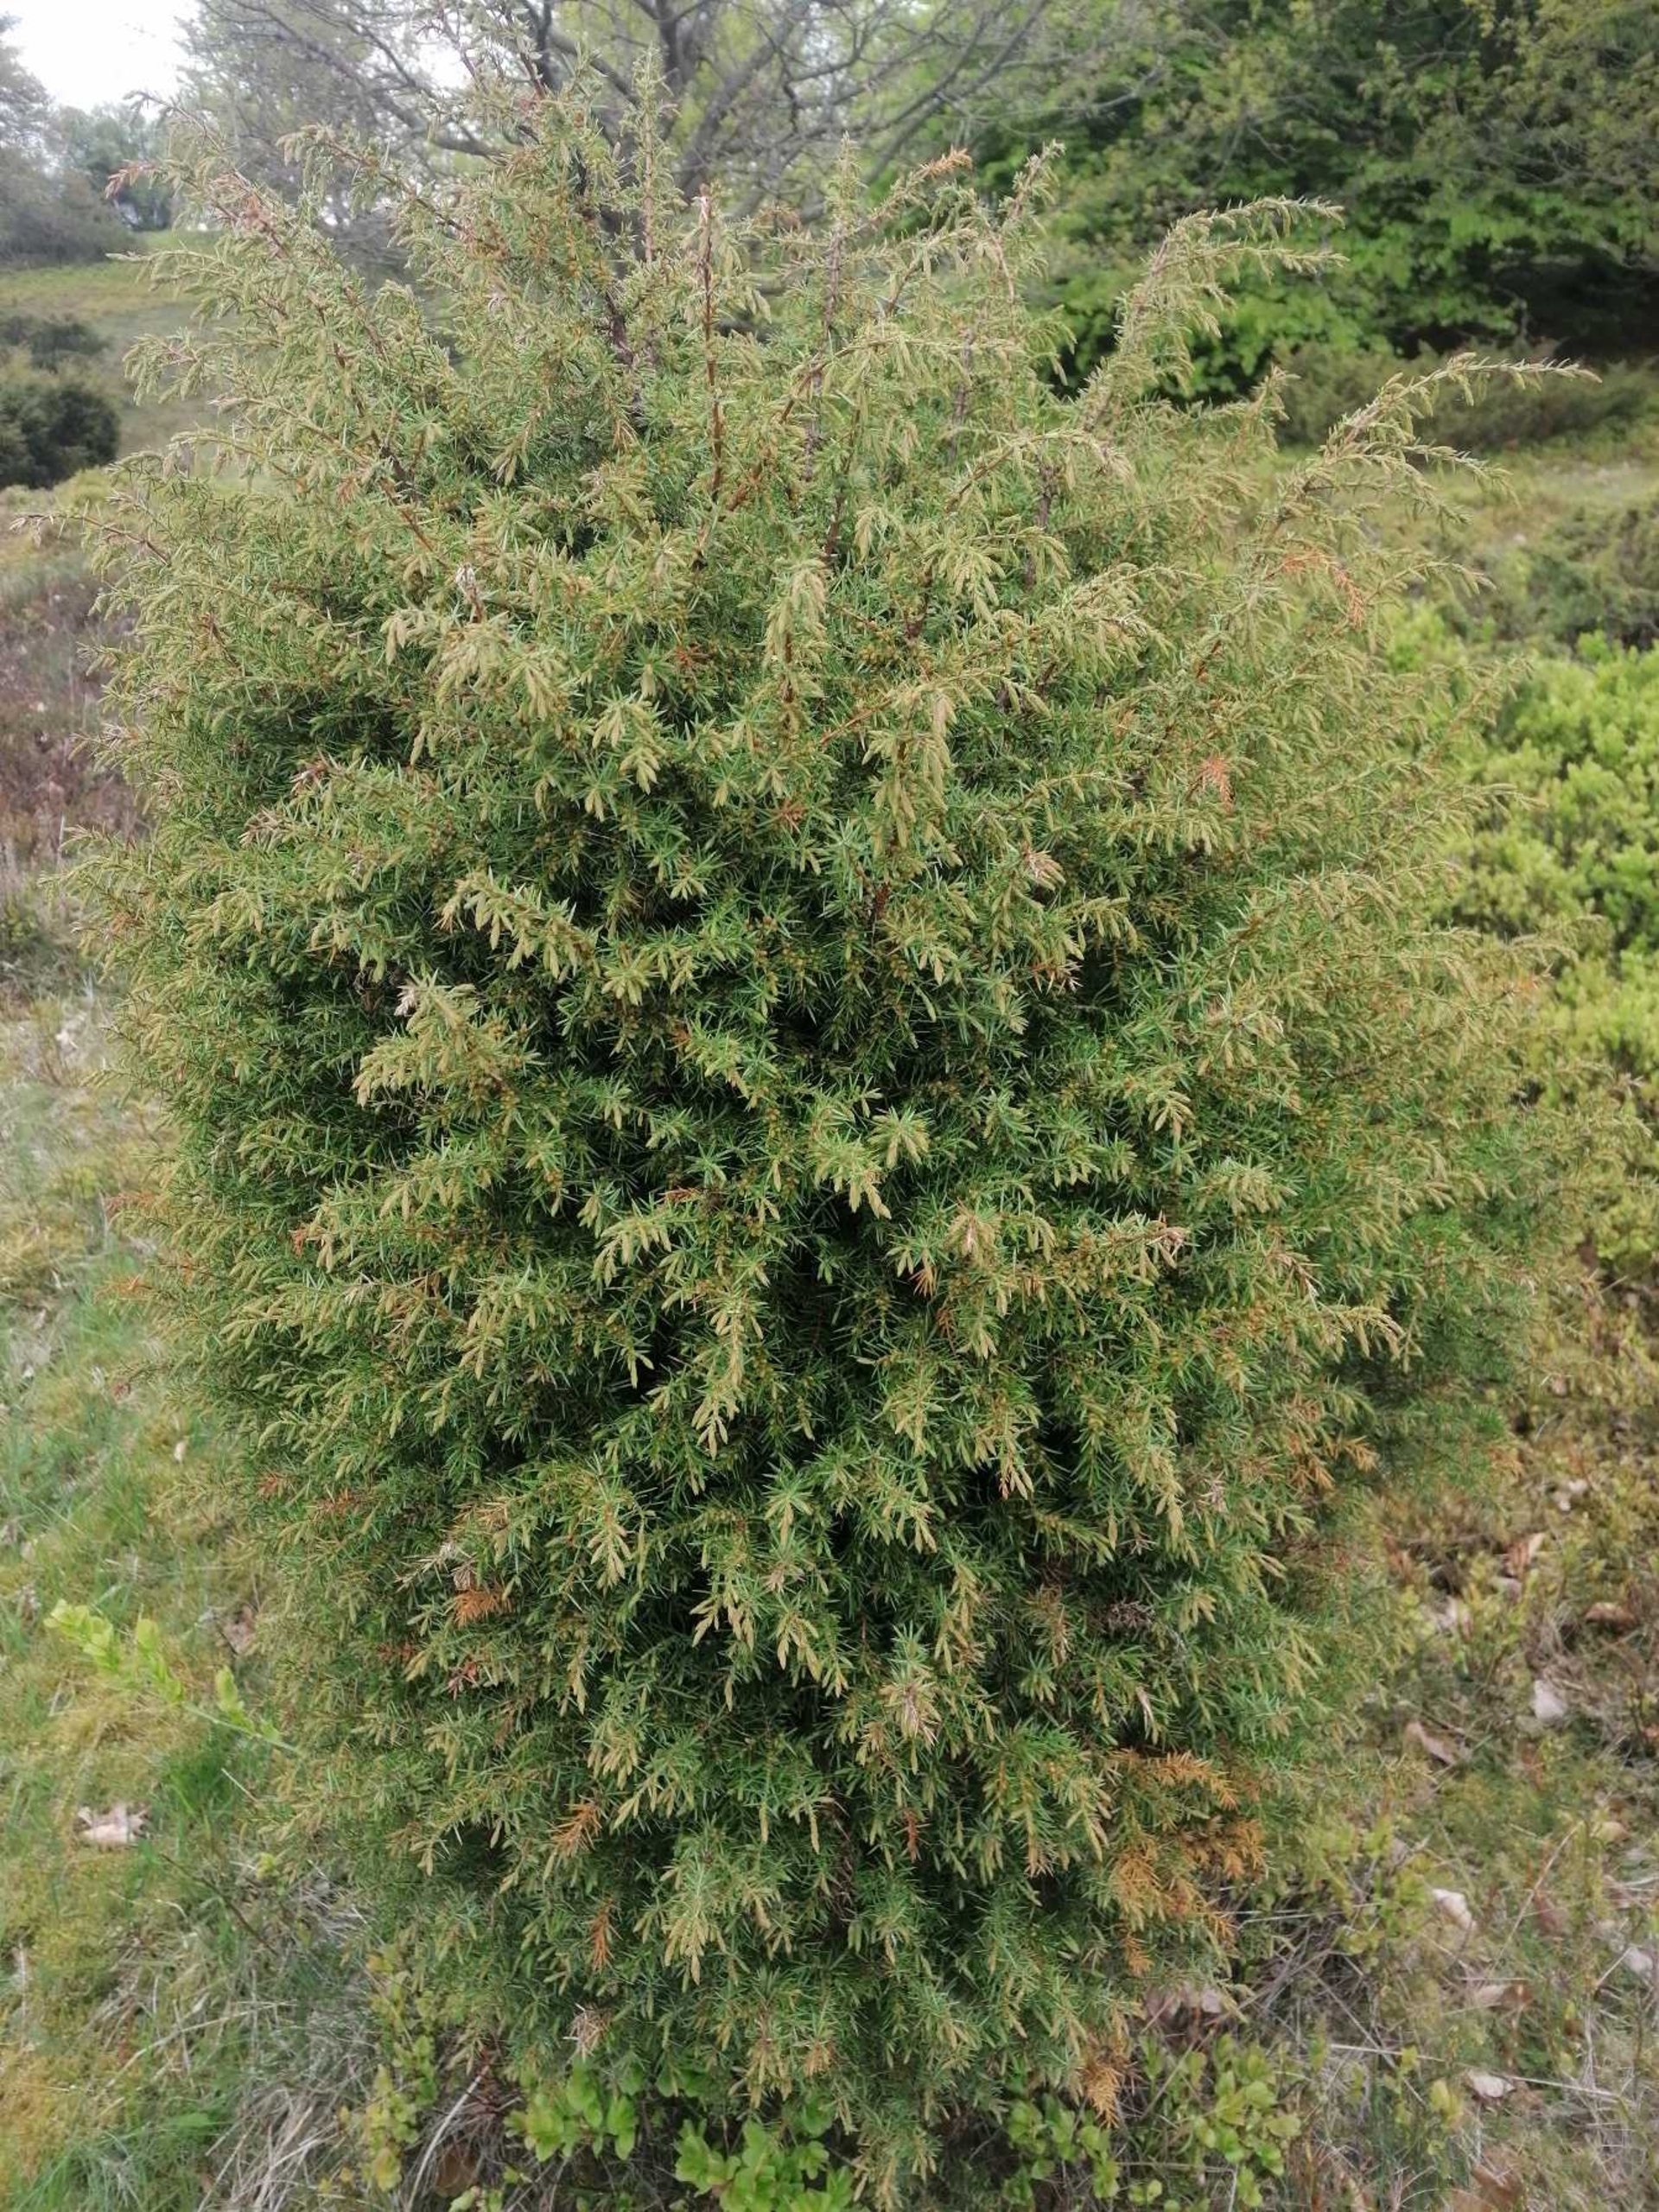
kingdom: Plantae
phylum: Tracheophyta
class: Pinopsida
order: Pinales
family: Cupressaceae
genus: Juniperus
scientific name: Juniperus communis
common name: Almindelig ene
